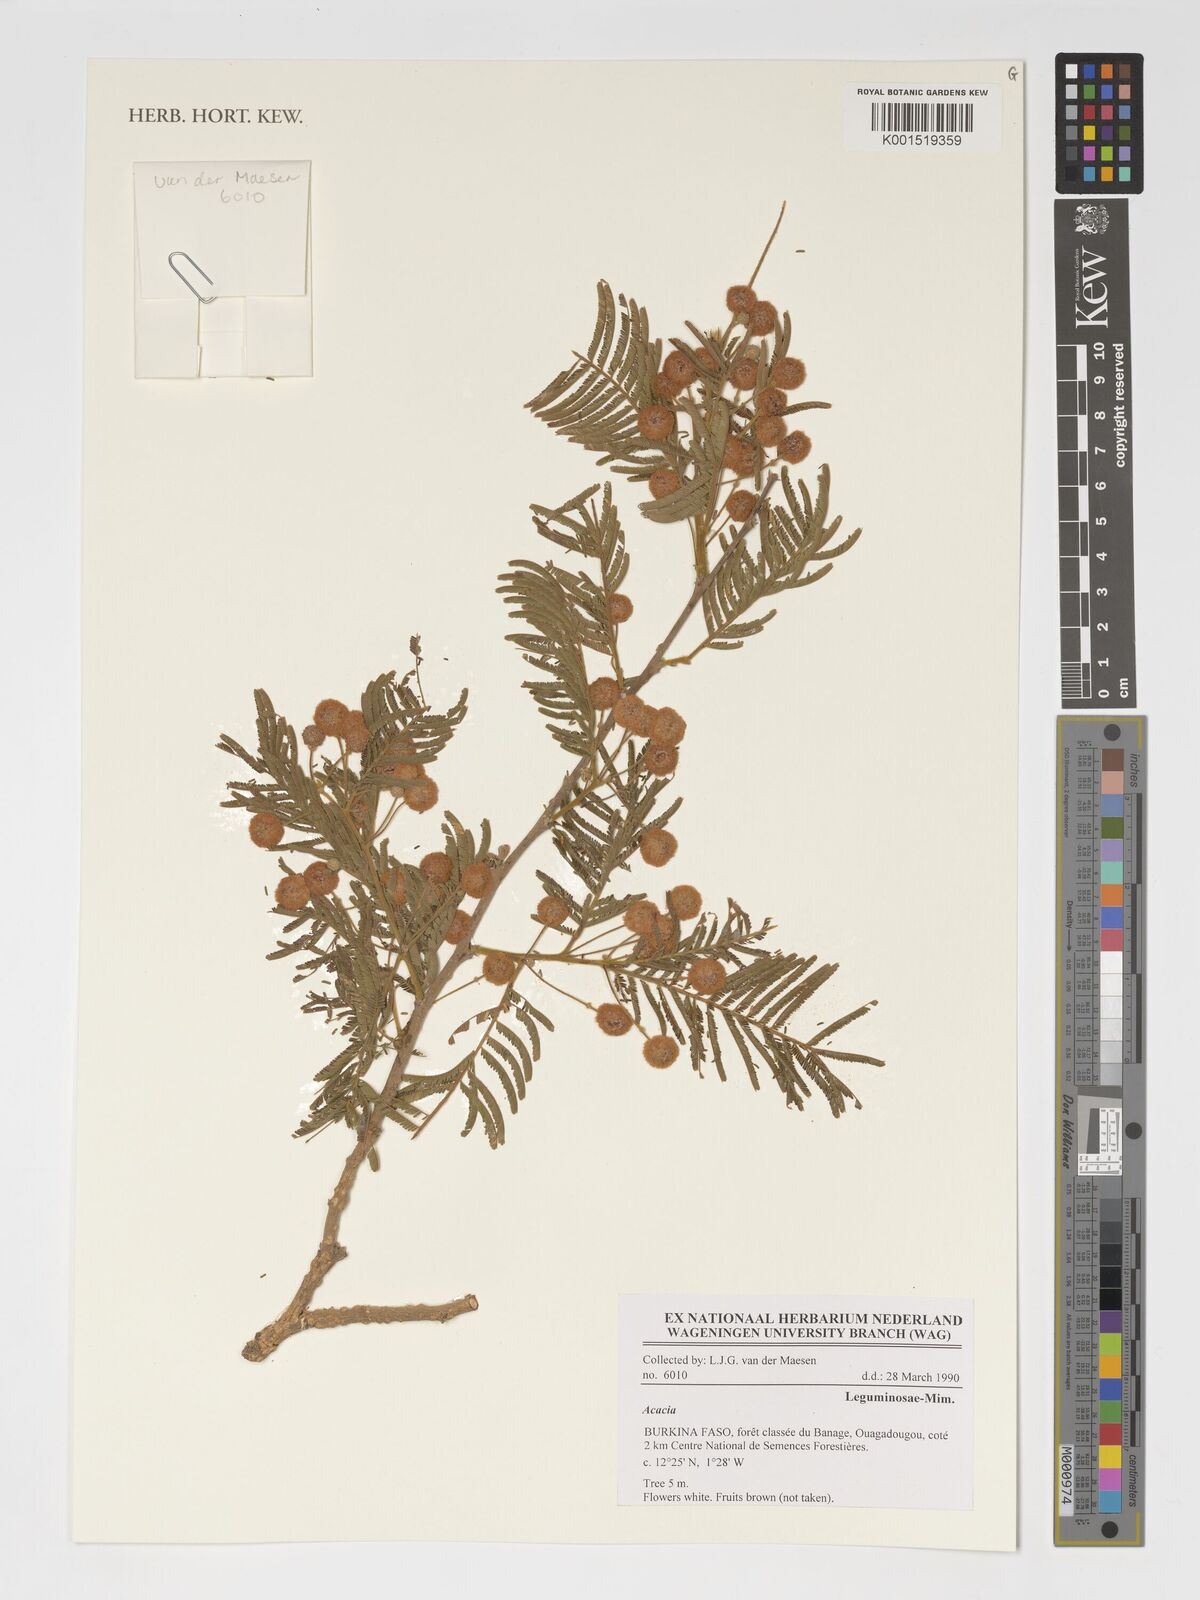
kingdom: Plantae
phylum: Tracheophyta
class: Magnoliopsida
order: Fabales
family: Fabaceae
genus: Acacia
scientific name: Acacia
